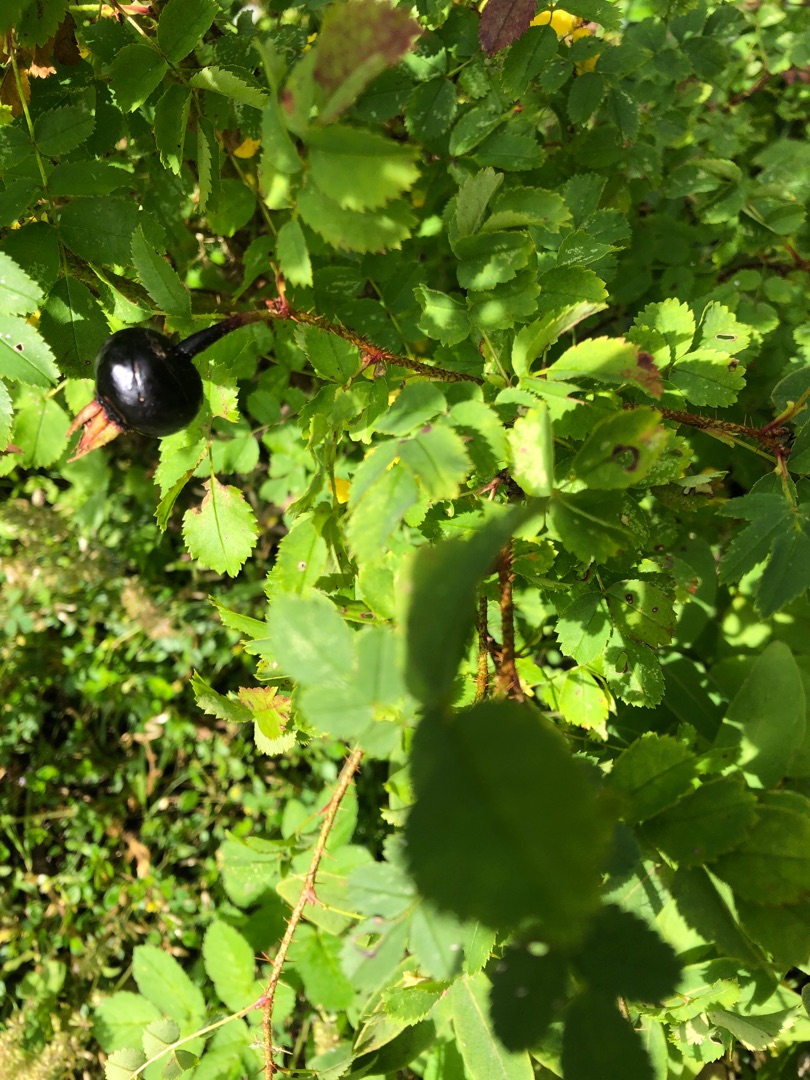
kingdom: Plantae
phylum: Tracheophyta
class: Magnoliopsida
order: Rosales
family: Rosaceae
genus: Rosa
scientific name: Rosa spinosissima
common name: Klit-rose
